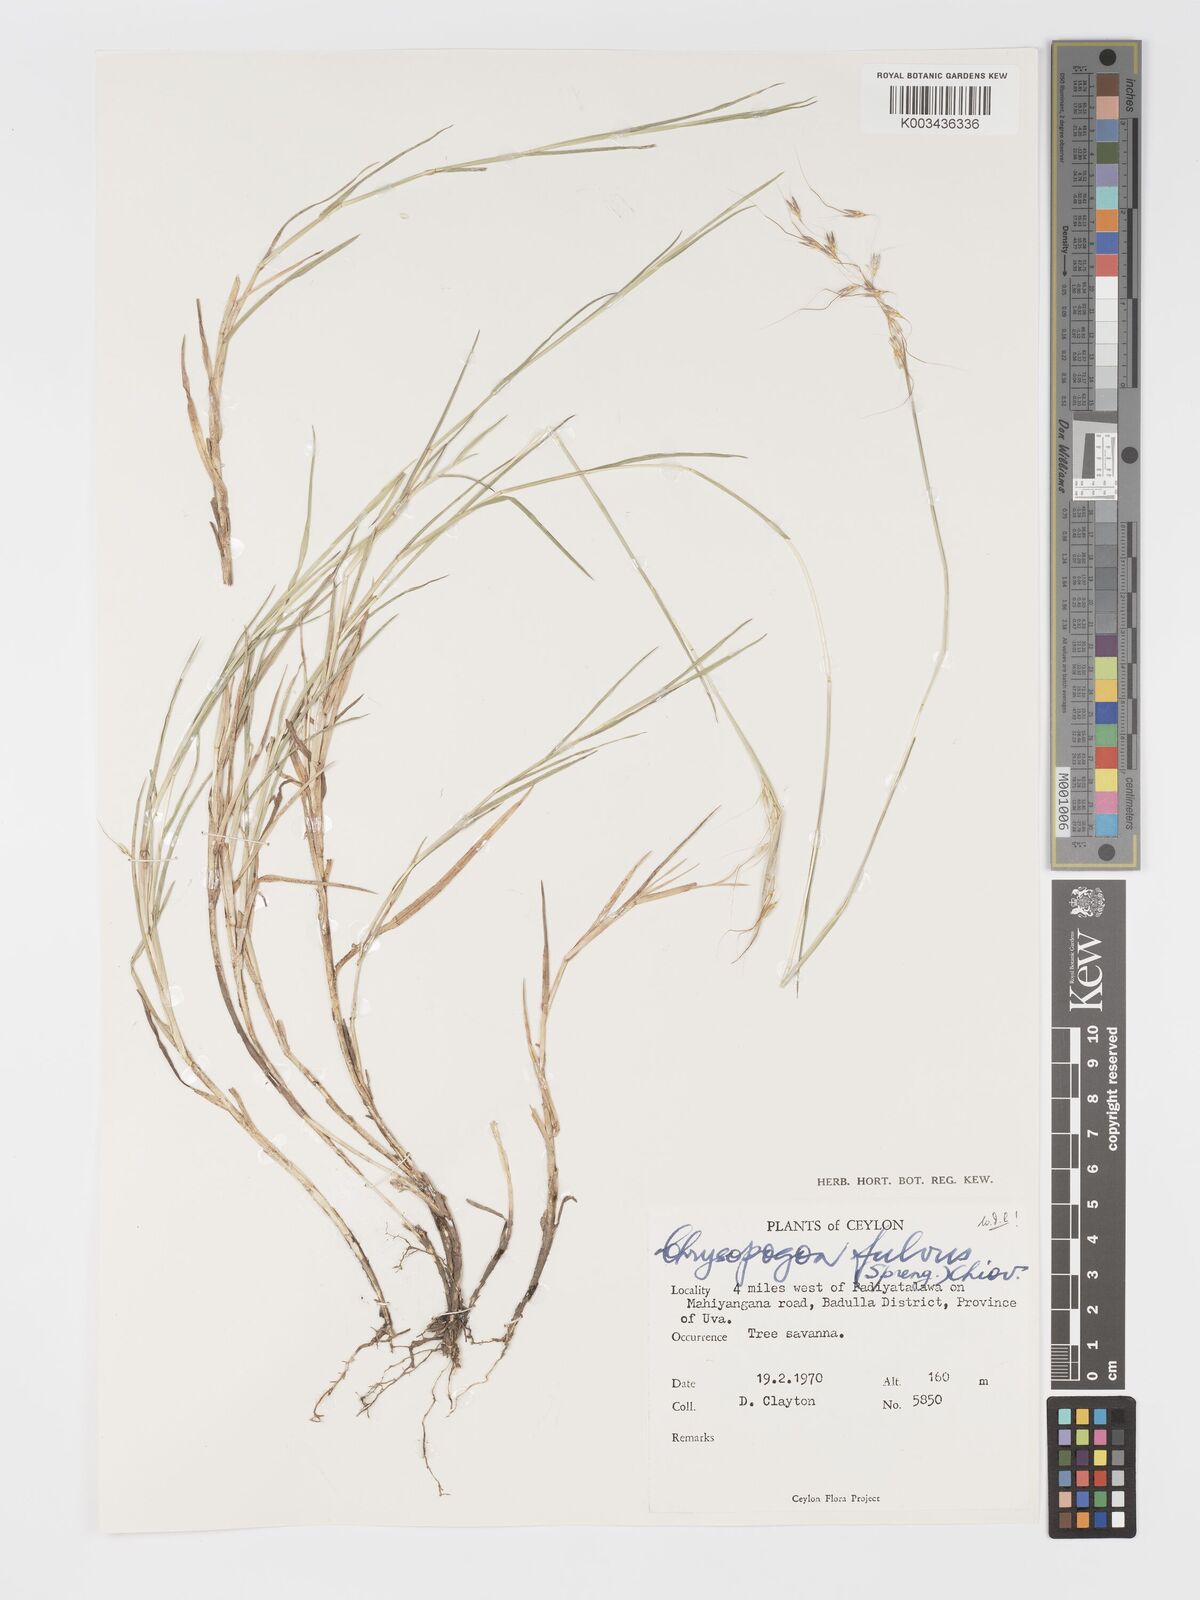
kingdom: Plantae
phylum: Tracheophyta
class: Liliopsida
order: Poales
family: Poaceae
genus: Chrysopogon
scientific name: Chrysopogon fulvus
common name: Red false beardgrass
